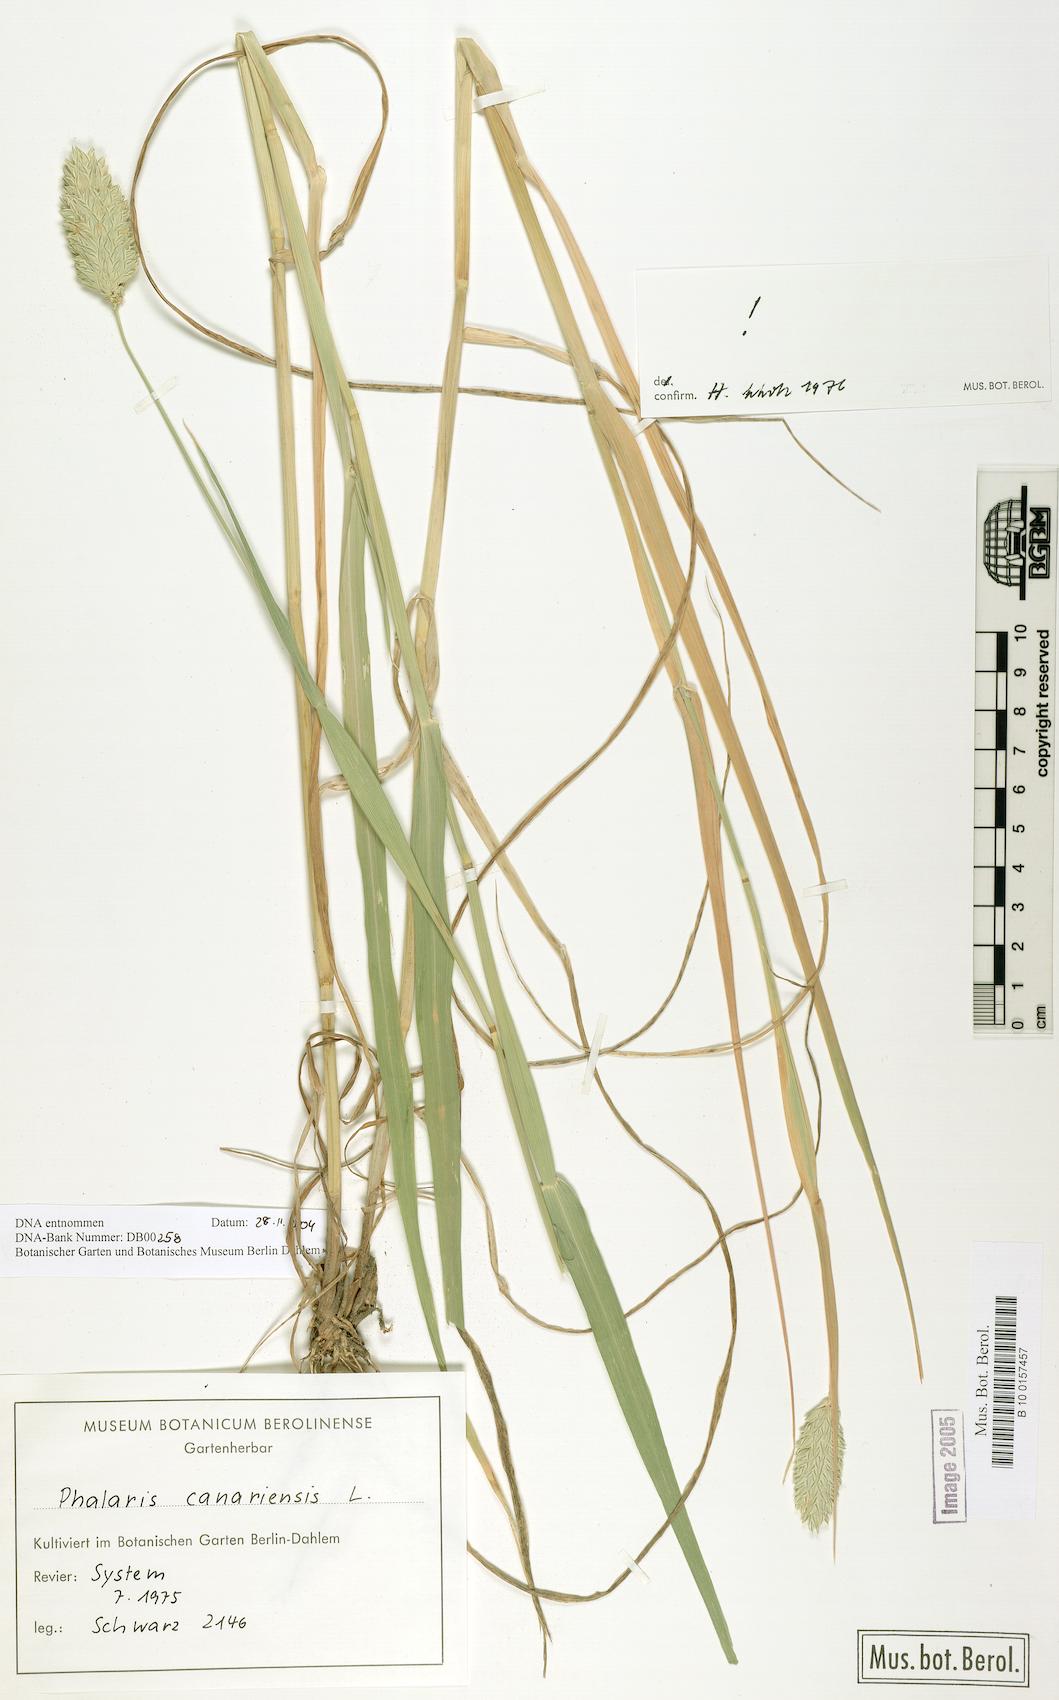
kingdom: Plantae
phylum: Tracheophyta
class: Liliopsida
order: Poales
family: Poaceae
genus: Phalaris
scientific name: Phalaris canariensis
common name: Annual canarygrass
